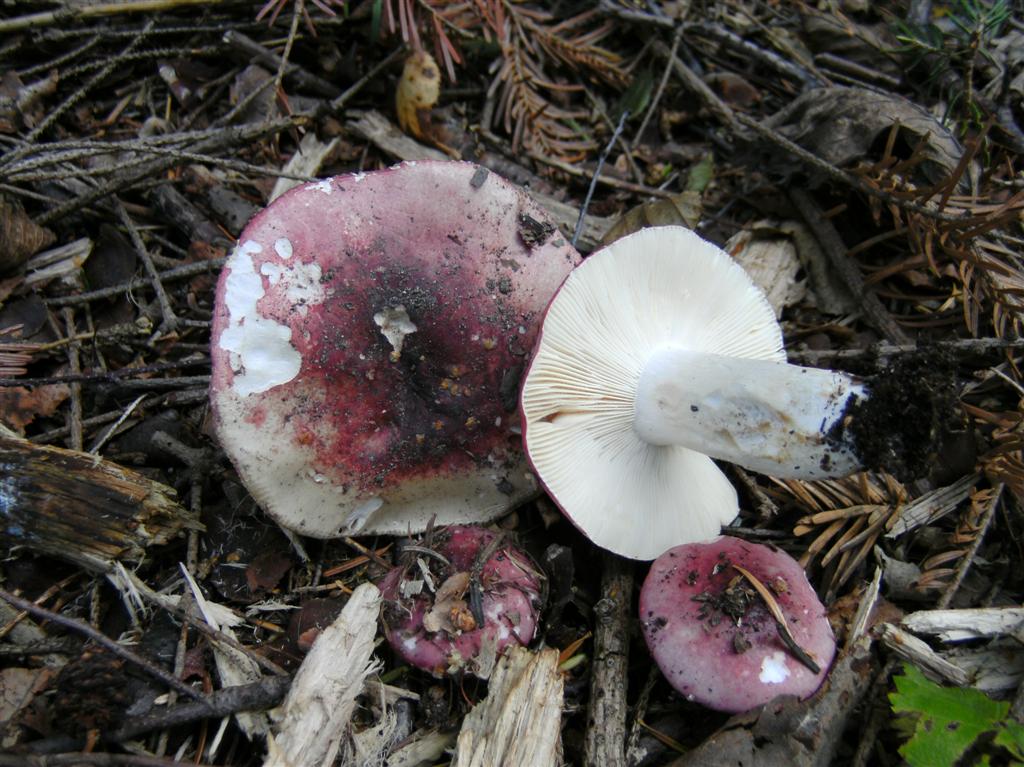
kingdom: Fungi
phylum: Basidiomycota
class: Agaricomycetes
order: Russulales
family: Russulaceae
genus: Russula
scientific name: Russula depallens
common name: falmende skørhat
